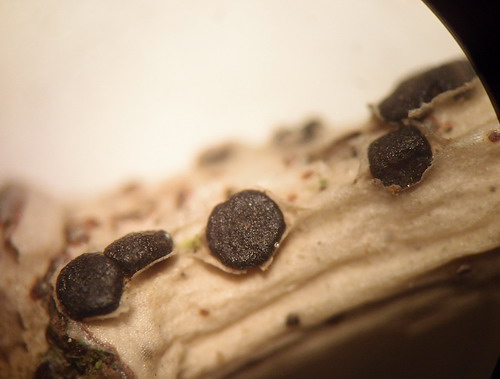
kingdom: Fungi
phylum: Ascomycota
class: Dothideomycetes
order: Dothideales
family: Dothideaceae
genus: Dothidea
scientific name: Dothidea sambuci
